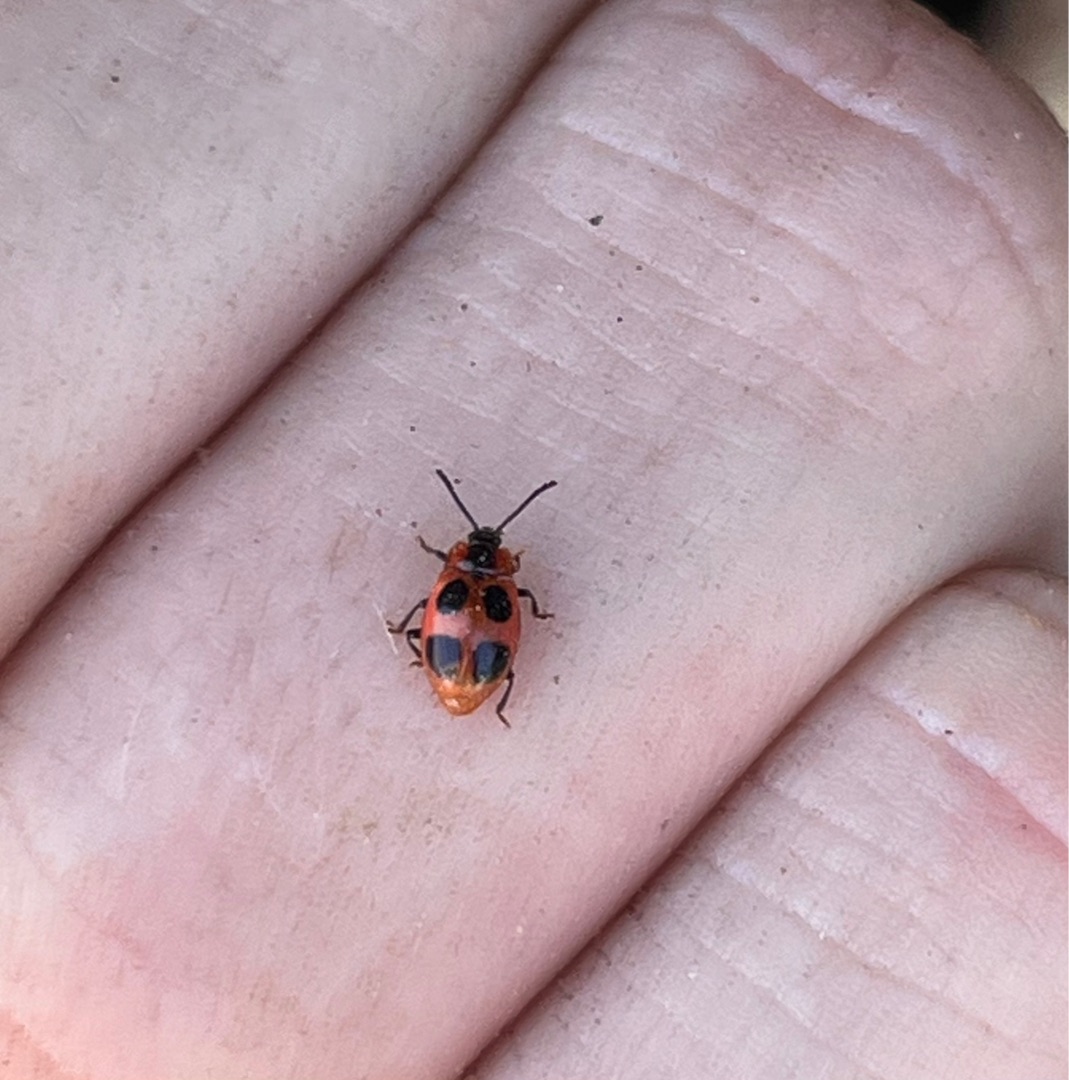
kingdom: Animalia
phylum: Arthropoda
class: Insecta
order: Coleoptera
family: Endomychidae
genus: Endomychus
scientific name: Endomychus coccineus
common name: Skarlagensvampehøne
